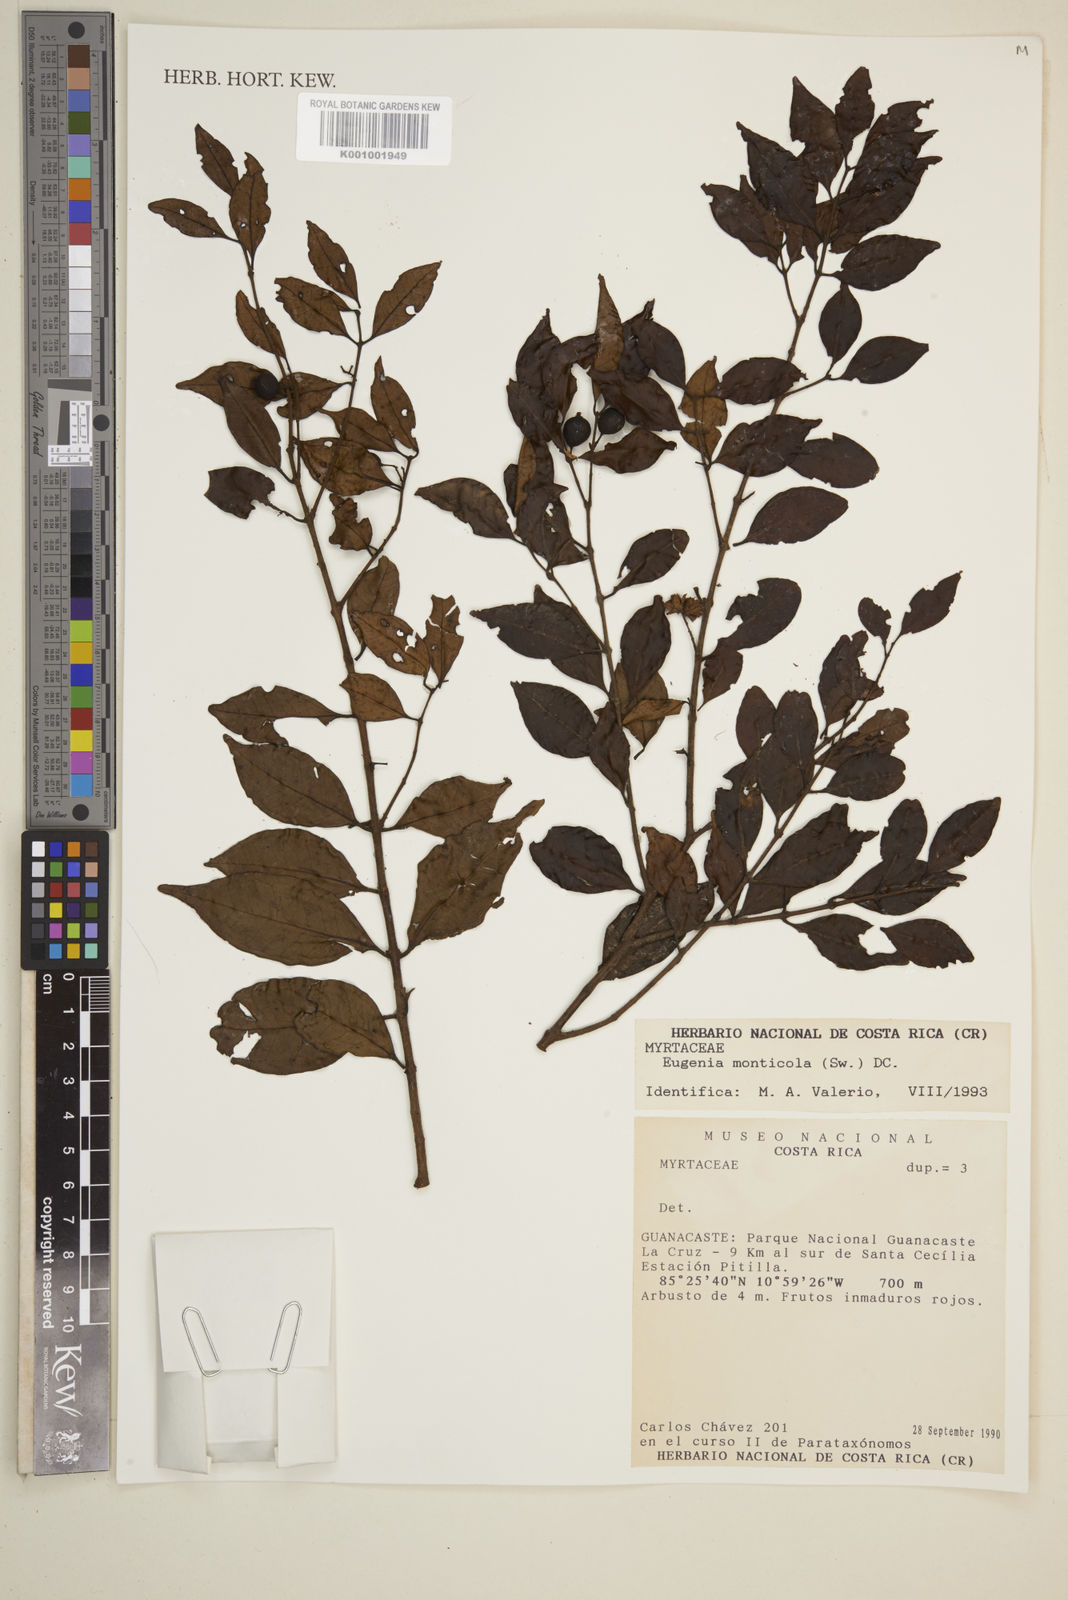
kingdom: Plantae
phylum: Tracheophyta
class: Magnoliopsida
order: Myrtales
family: Myrtaceae
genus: Eugenia
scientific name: Eugenia monticola
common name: Birds berry
